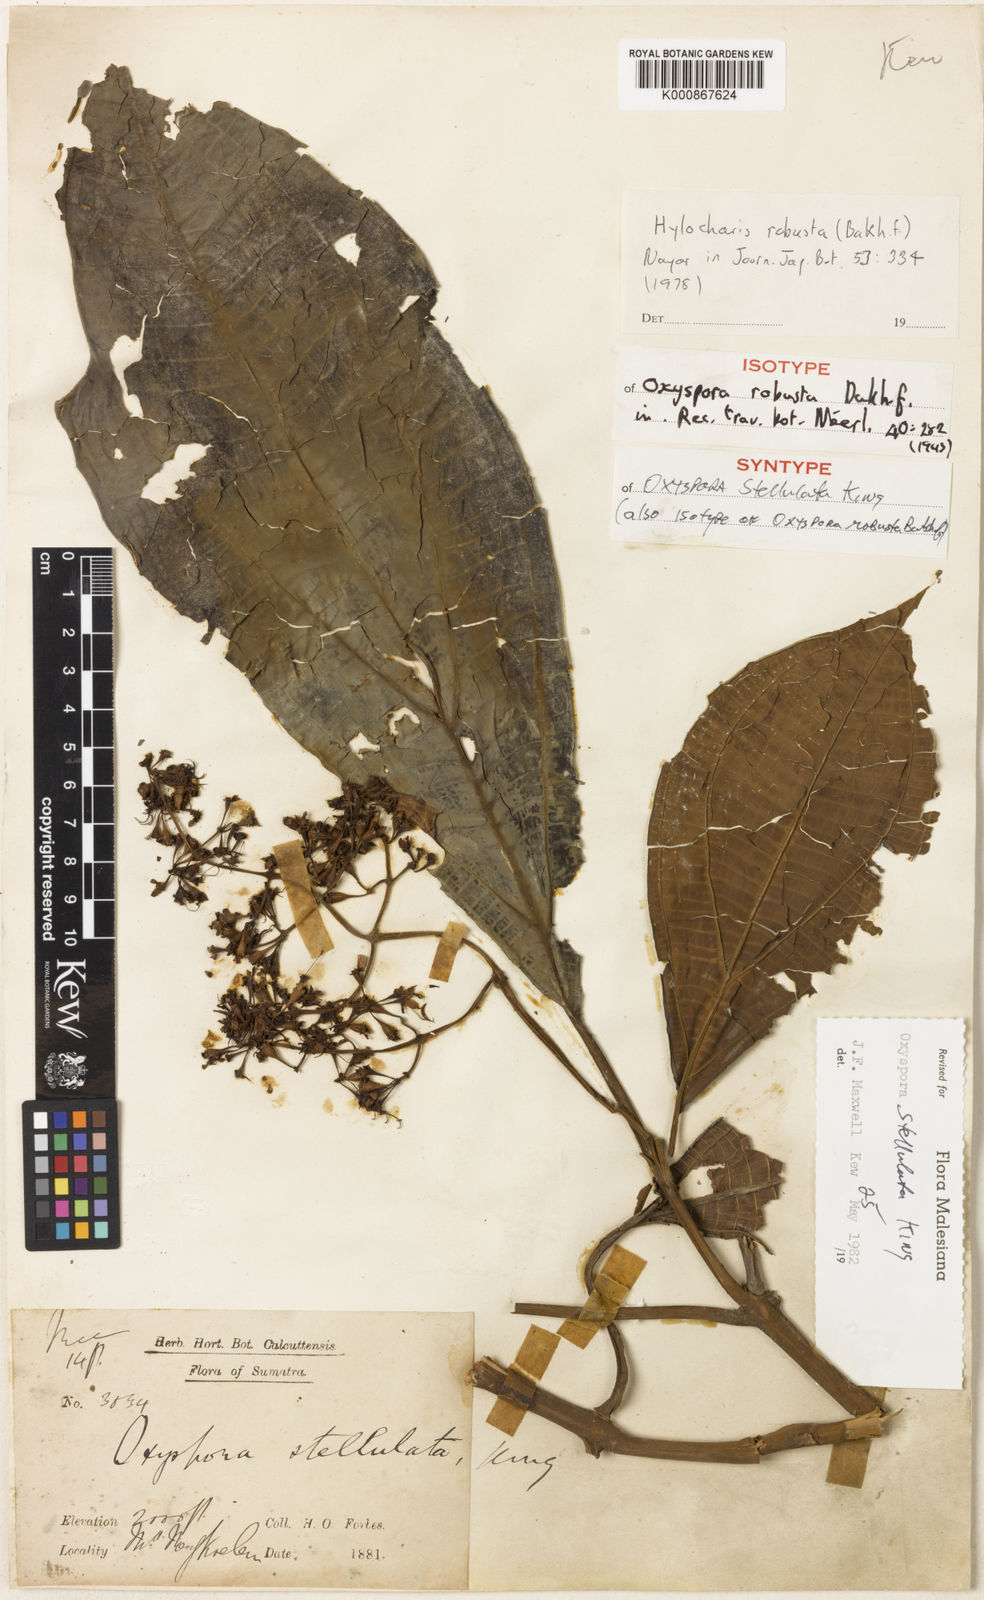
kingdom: Plantae
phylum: Tracheophyta
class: Magnoliopsida
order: Myrtales
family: Melastomataceae
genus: Hylocharis
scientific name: Hylocharis stellulata
